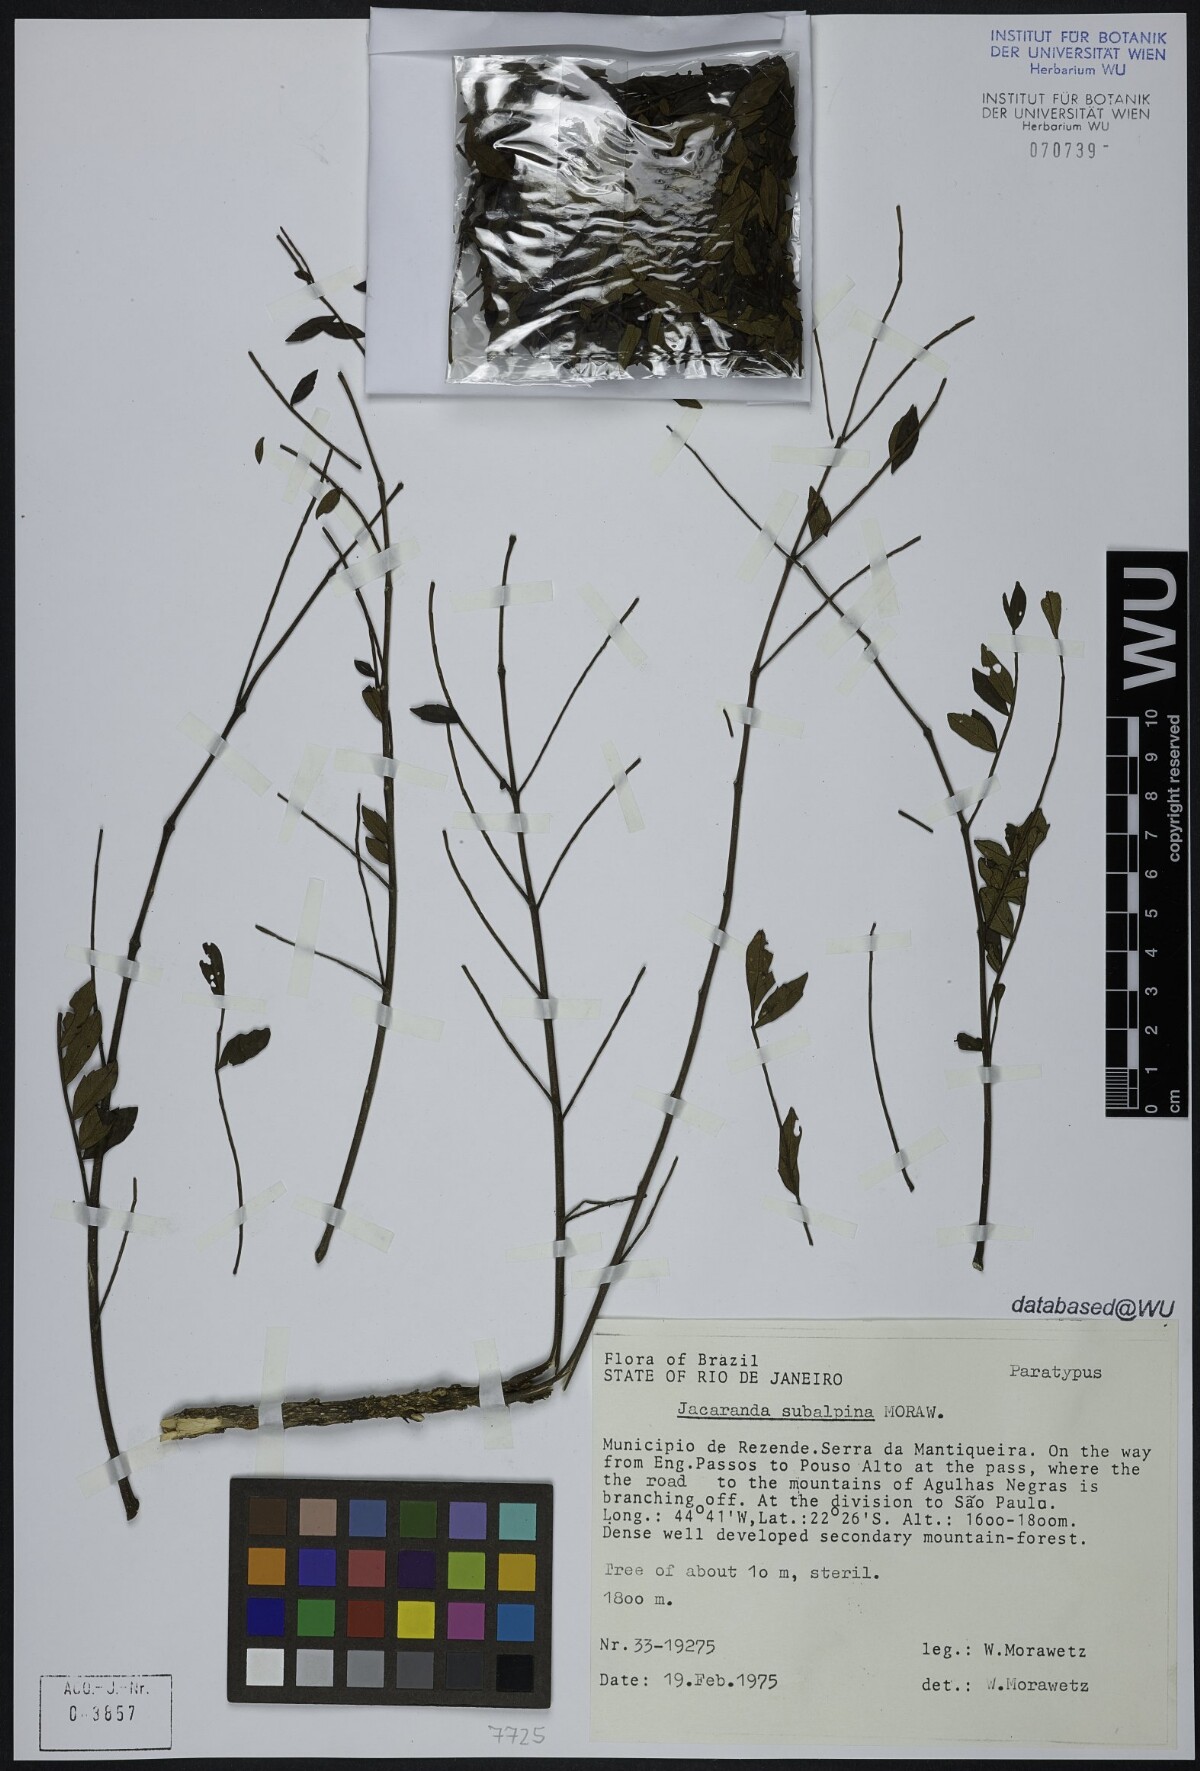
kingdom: Plantae
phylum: Tracheophyta
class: Magnoliopsida
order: Lamiales
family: Bignoniaceae
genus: Jacaranda
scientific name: Jacaranda subalpina
